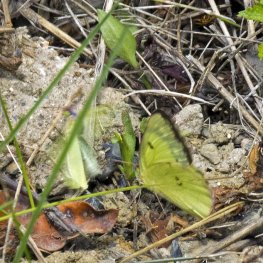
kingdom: Animalia
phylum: Arthropoda
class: Insecta
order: Lepidoptera
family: Pieridae
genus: Colias
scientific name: Colias philodice
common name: Clouded Sulphur
